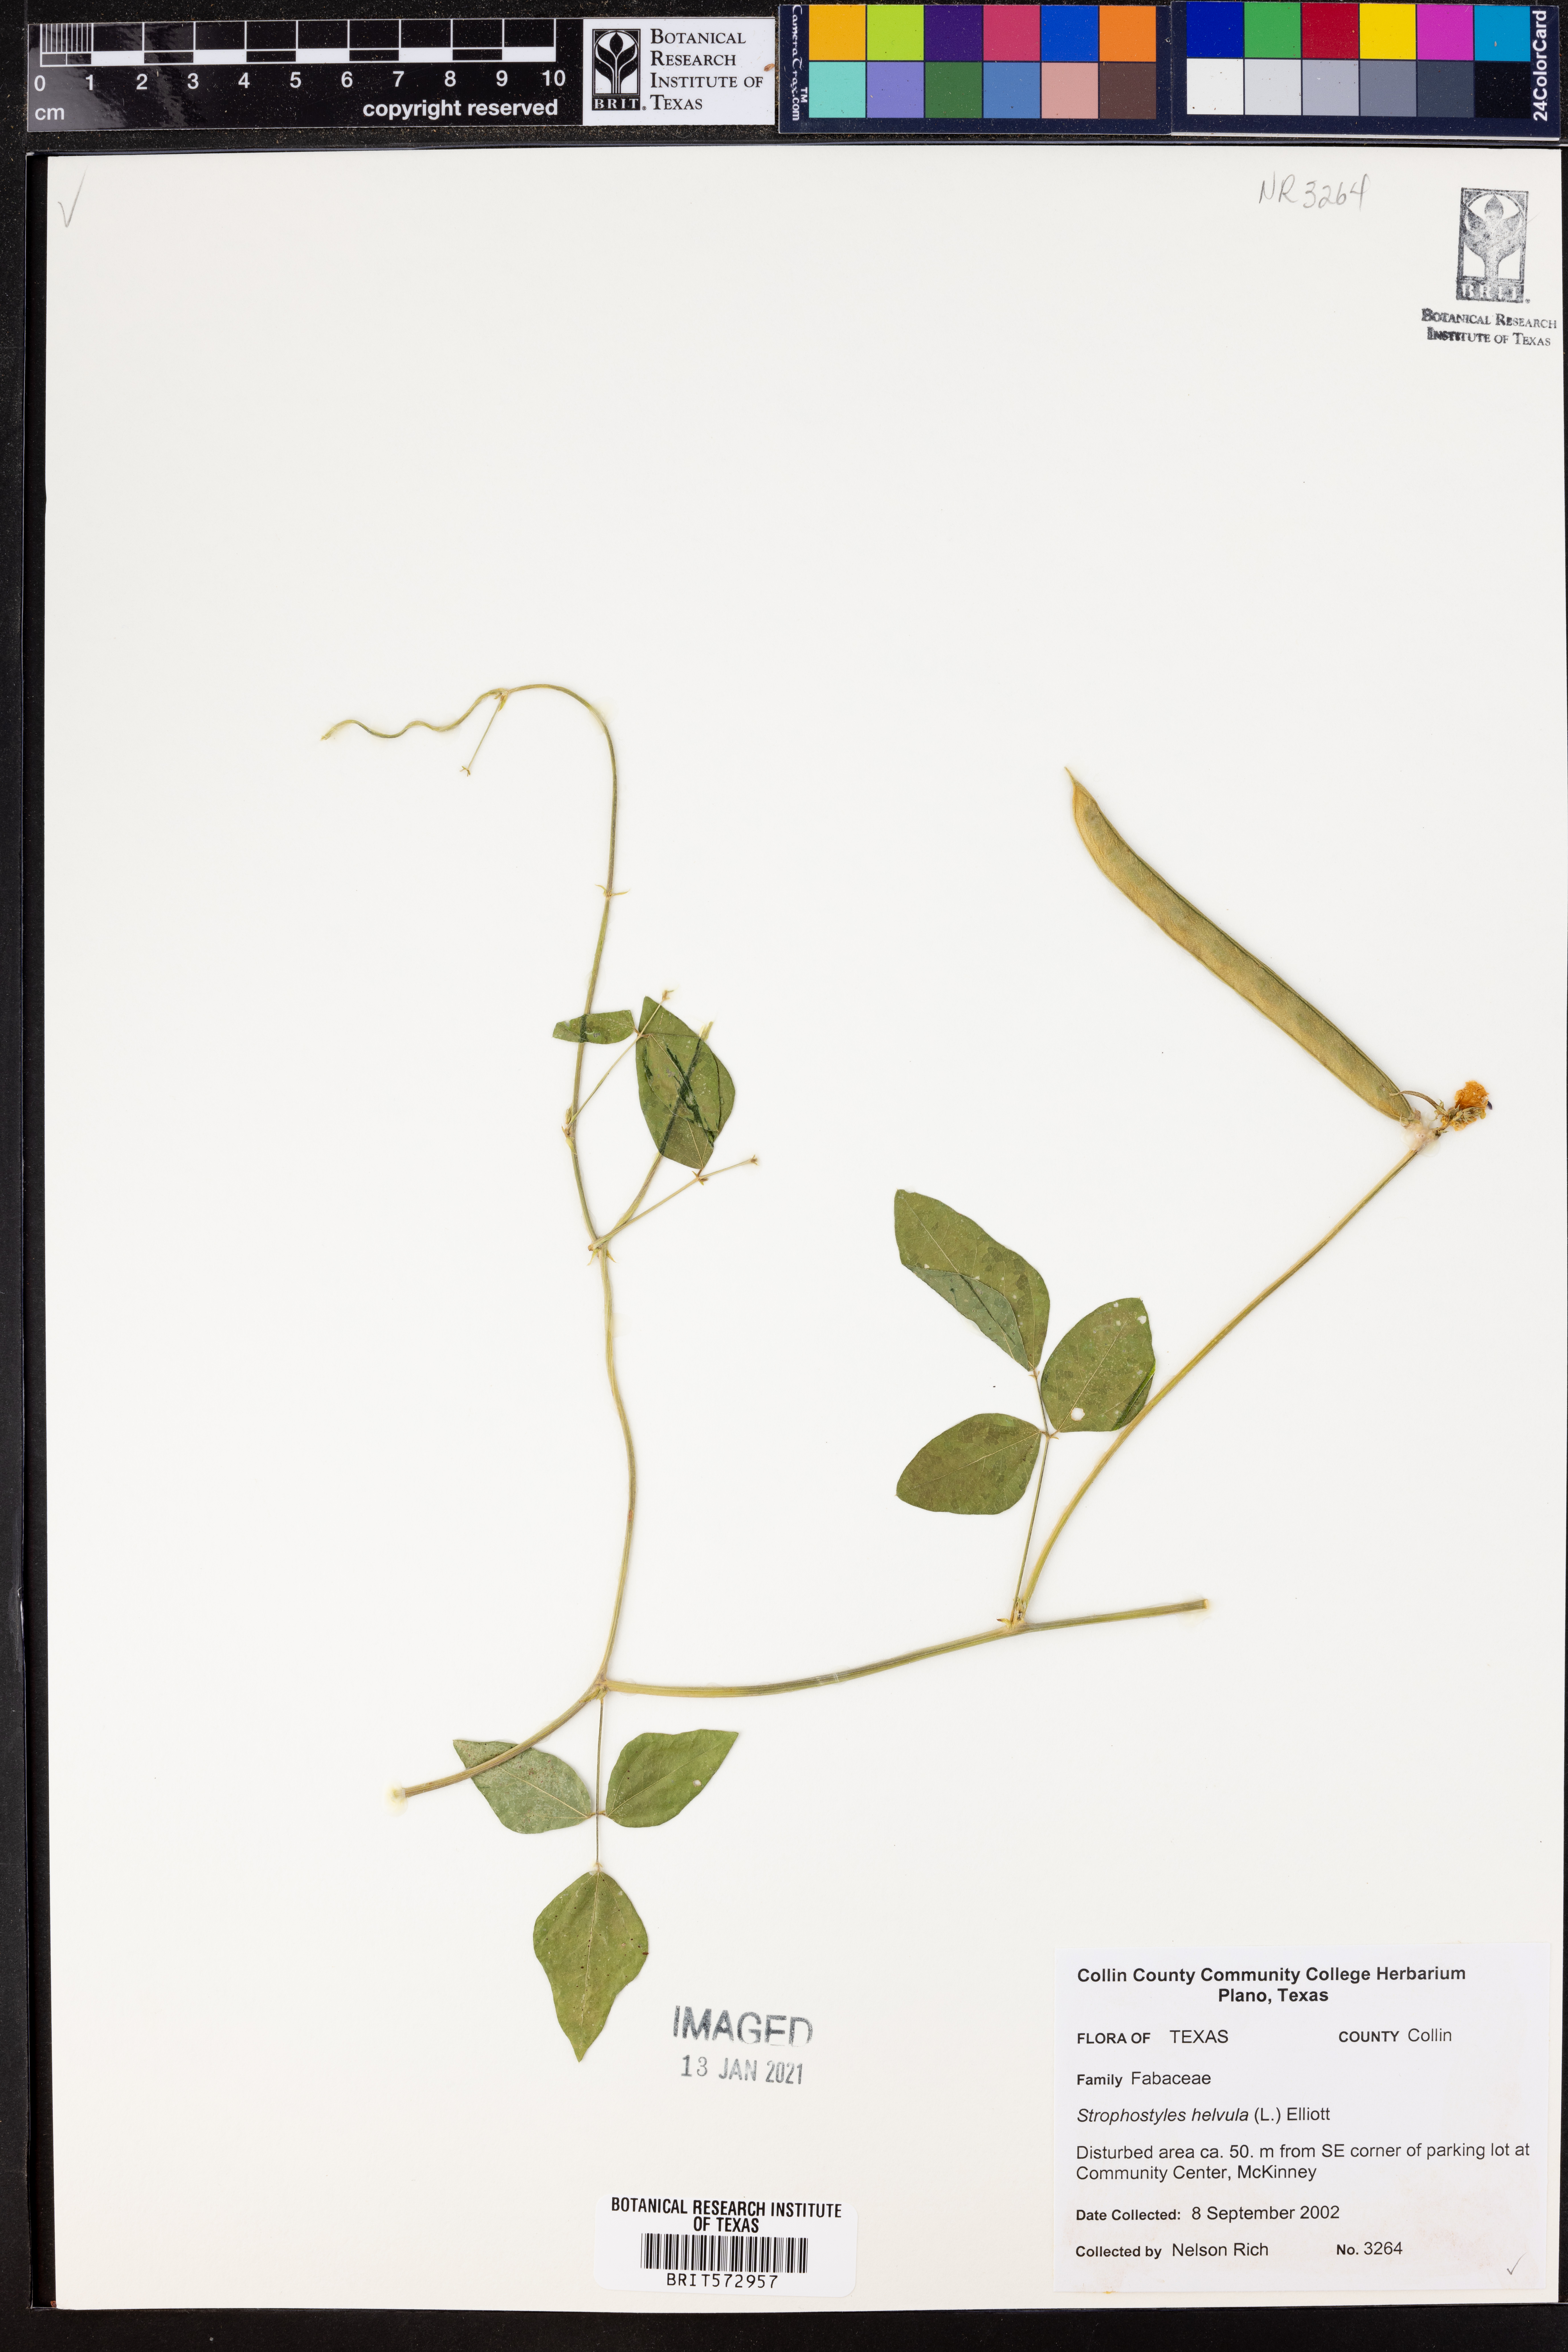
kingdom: Plantae
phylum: Tracheophyta
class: Magnoliopsida
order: Fabales
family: Fabaceae
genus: Strophostyles
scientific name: Strophostyles helvola
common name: Trailing wild bean
